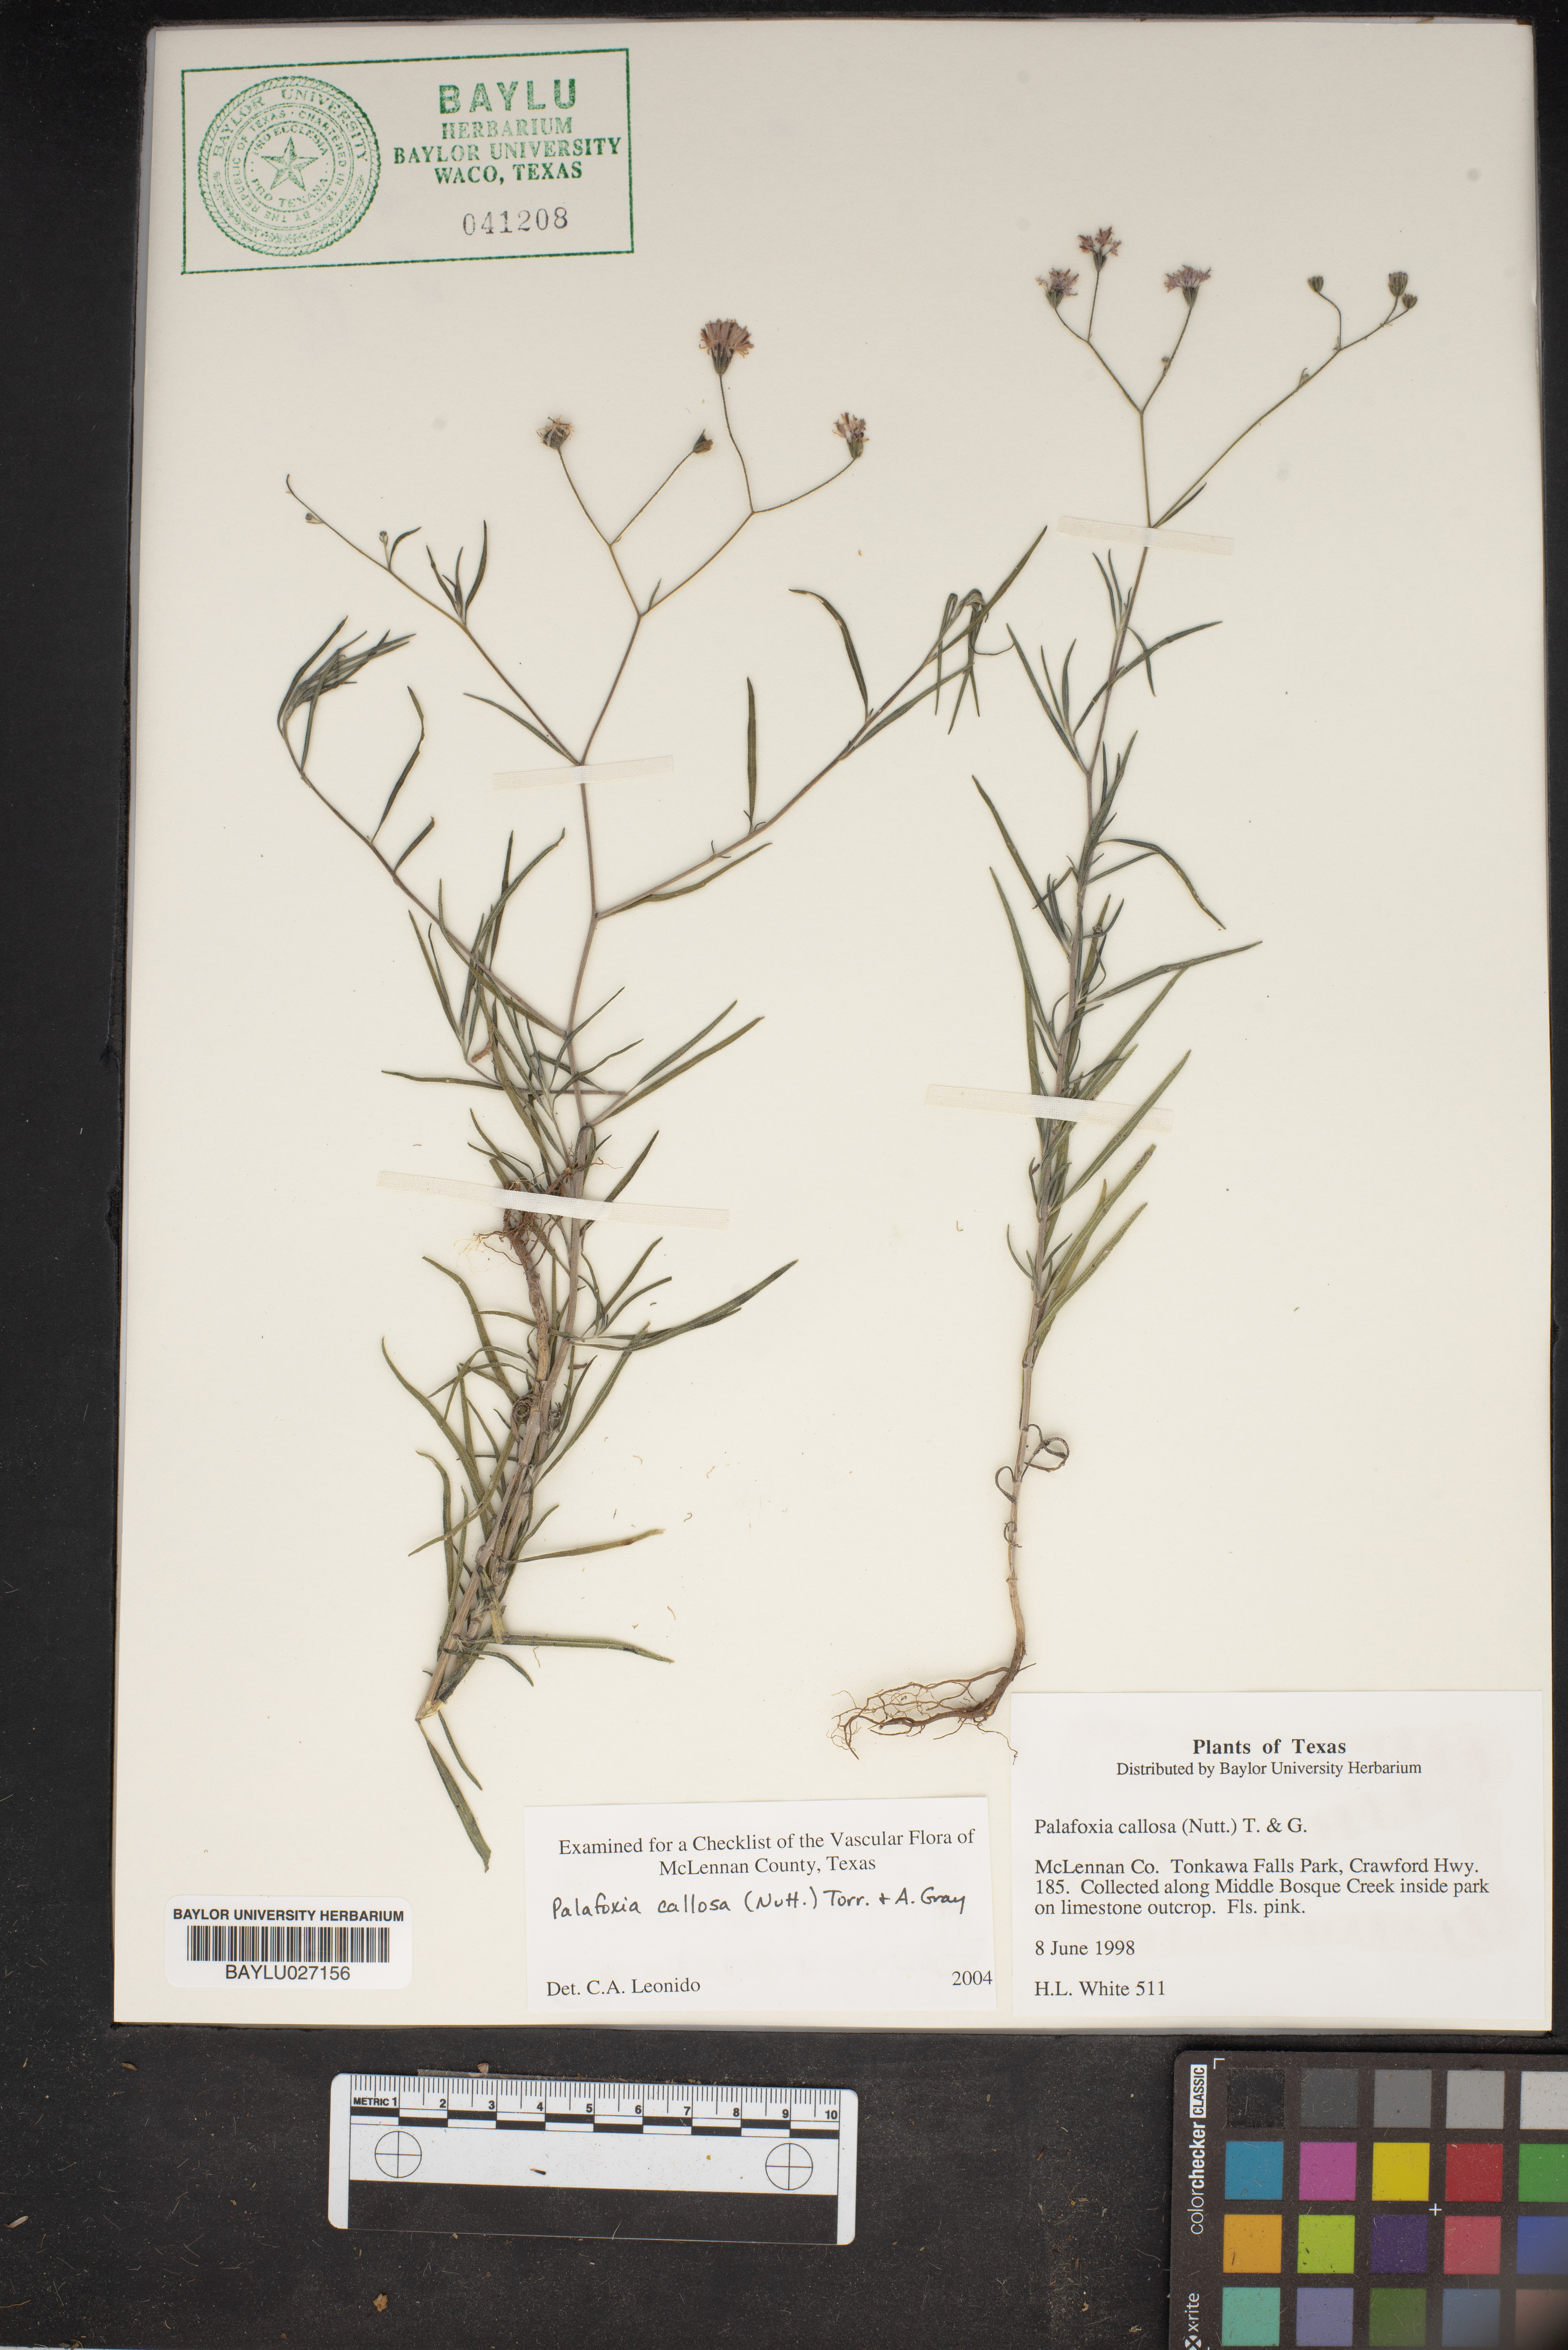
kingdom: Plantae
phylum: Tracheophyta
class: Magnoliopsida
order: Asterales
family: Asteraceae
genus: Palafoxia
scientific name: Palafoxia callosa
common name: Small palafox
